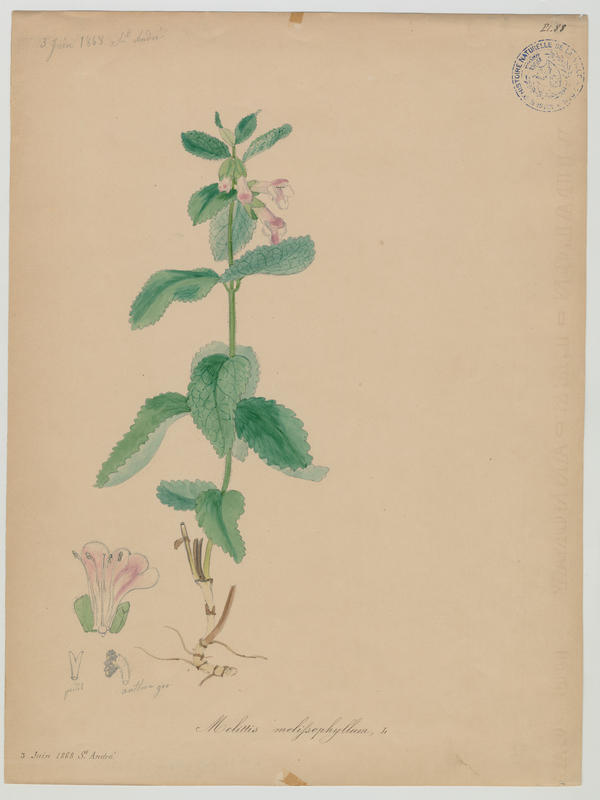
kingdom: Plantae
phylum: Tracheophyta
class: Magnoliopsida
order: Lamiales
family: Lamiaceae
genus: Melittis
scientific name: Melittis melissophyllum
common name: Bastard balm
